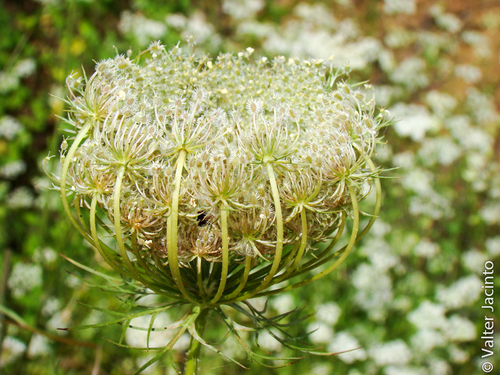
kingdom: Plantae
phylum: Tracheophyta
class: Magnoliopsida
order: Apiales
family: Apiaceae
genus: Daucus
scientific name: Daucus carota
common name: Wild carrot
